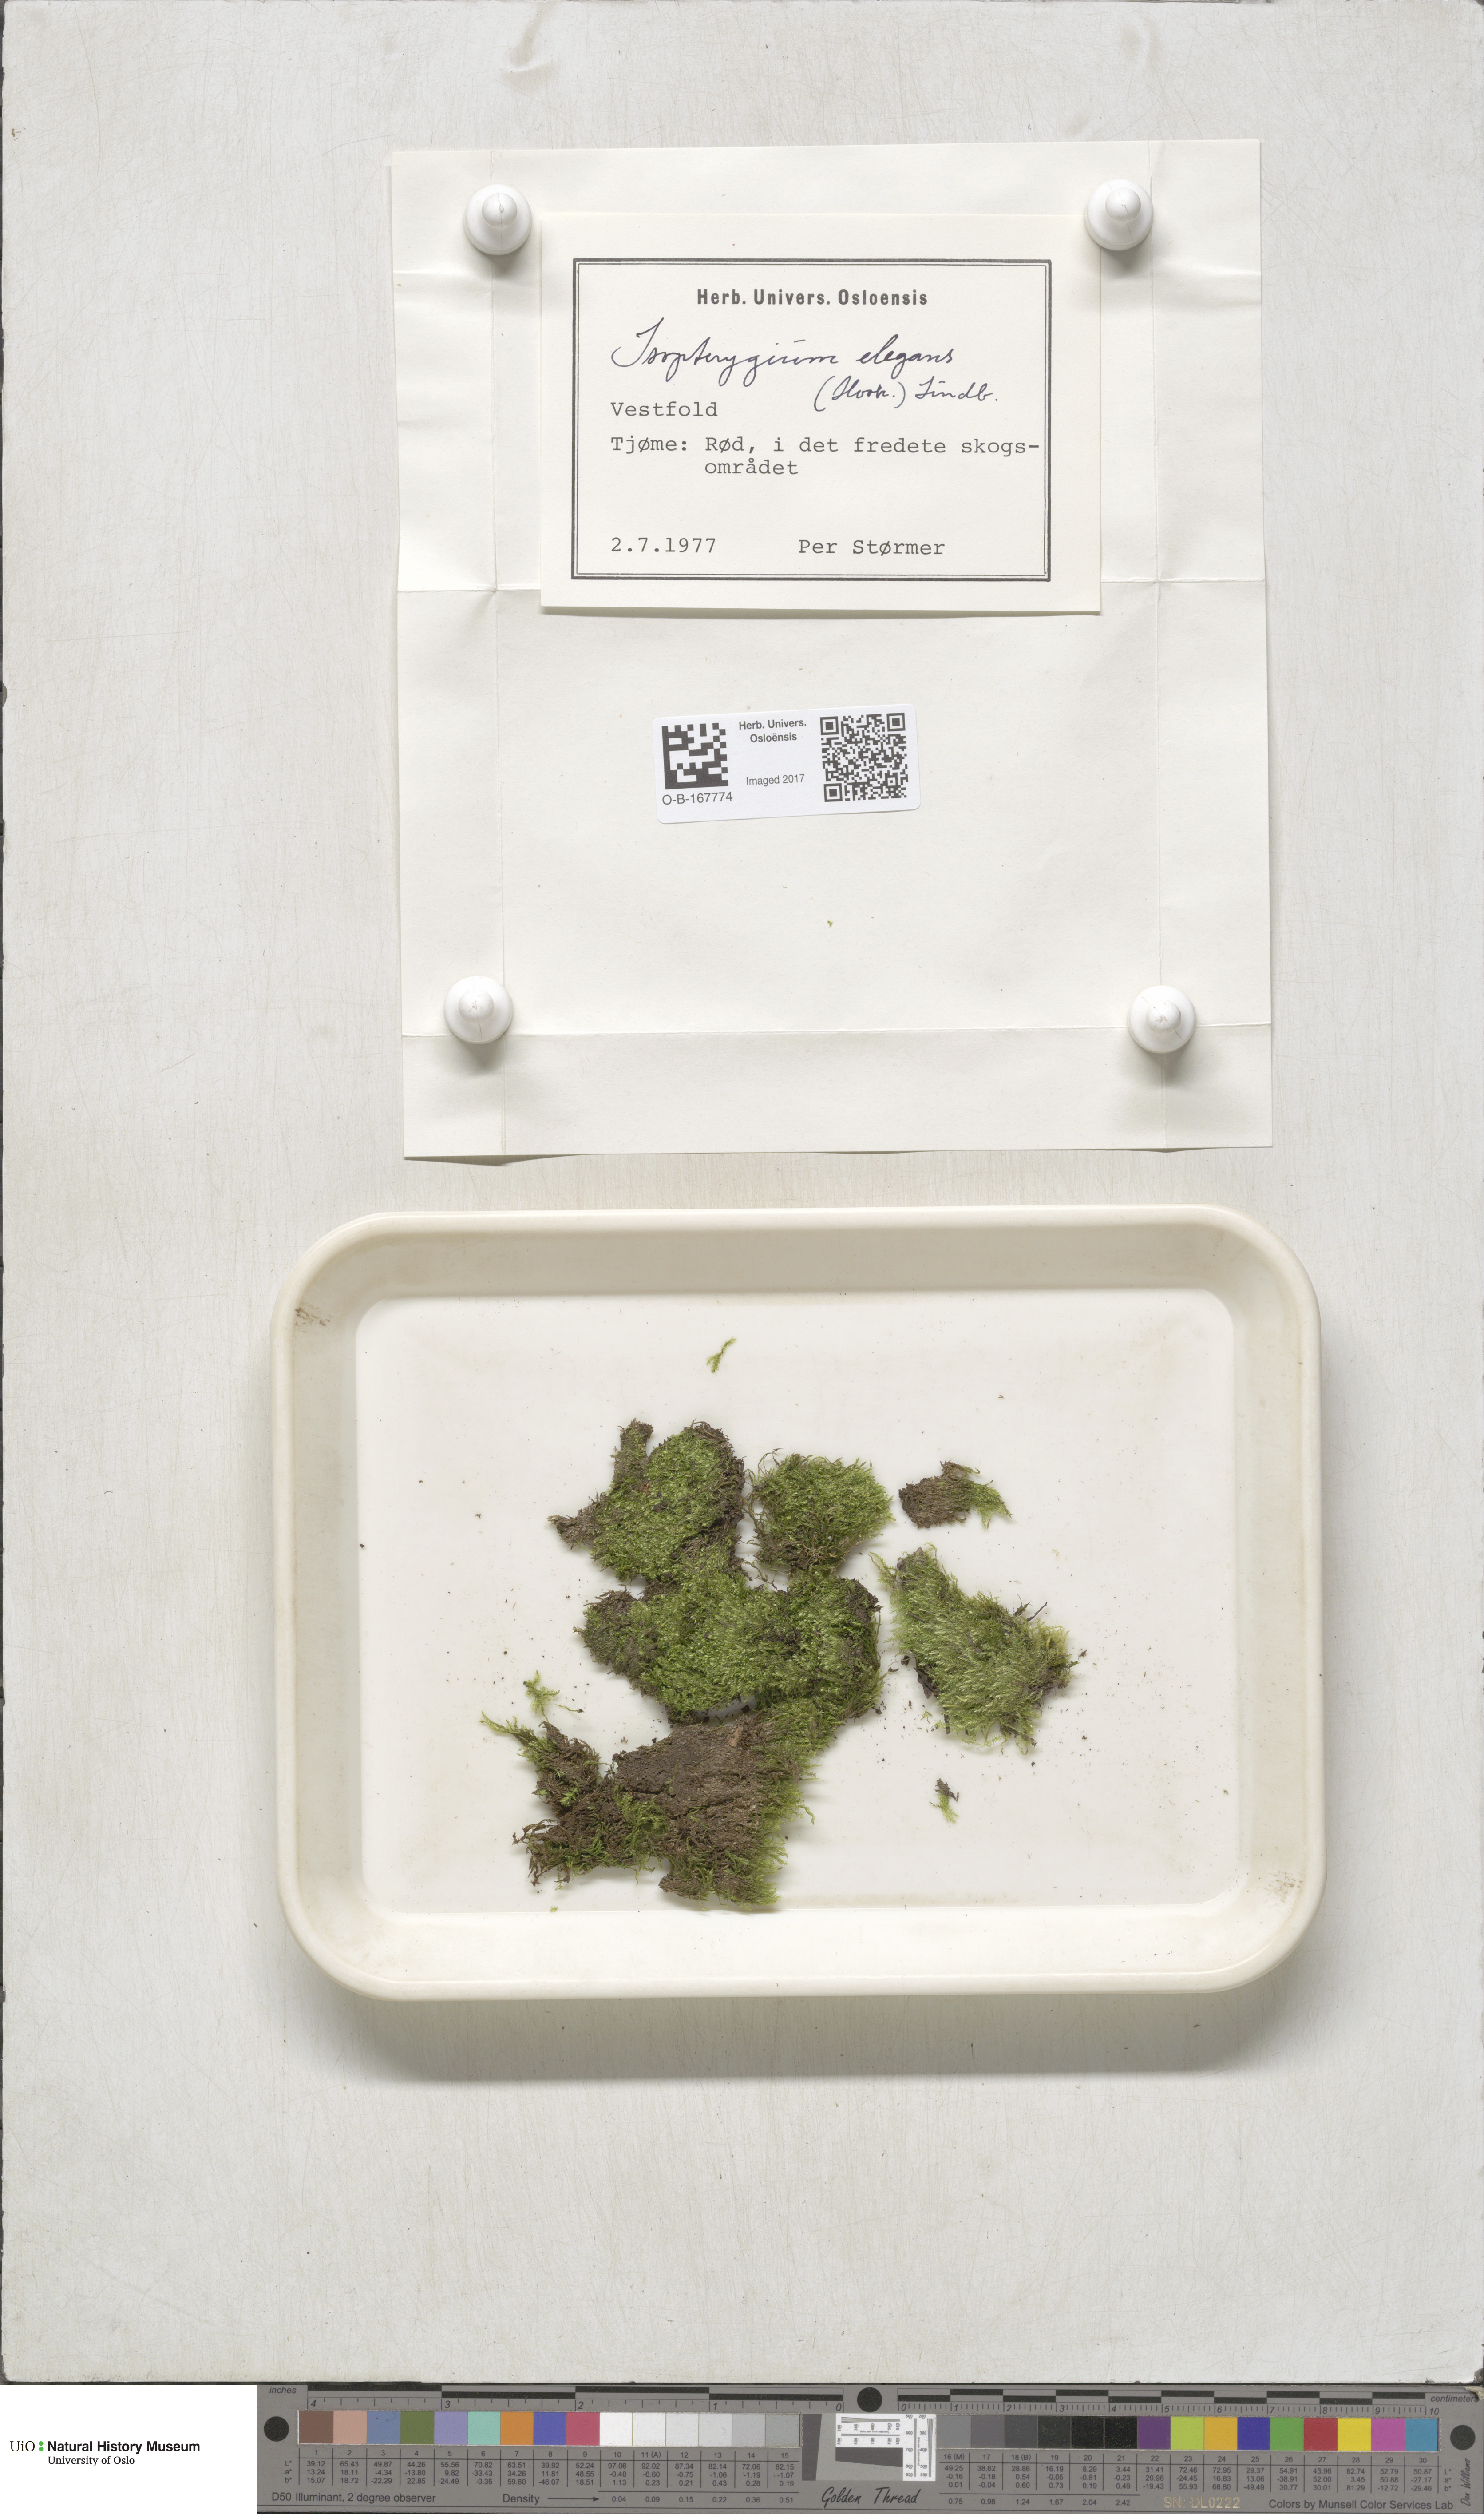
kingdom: Plantae
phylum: Bryophyta
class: Bryopsida
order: Hypnales
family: Plagiotheciaceae
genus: Pseudotaxiphyllum
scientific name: Pseudotaxiphyllum elegans
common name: Elegant silk moss
